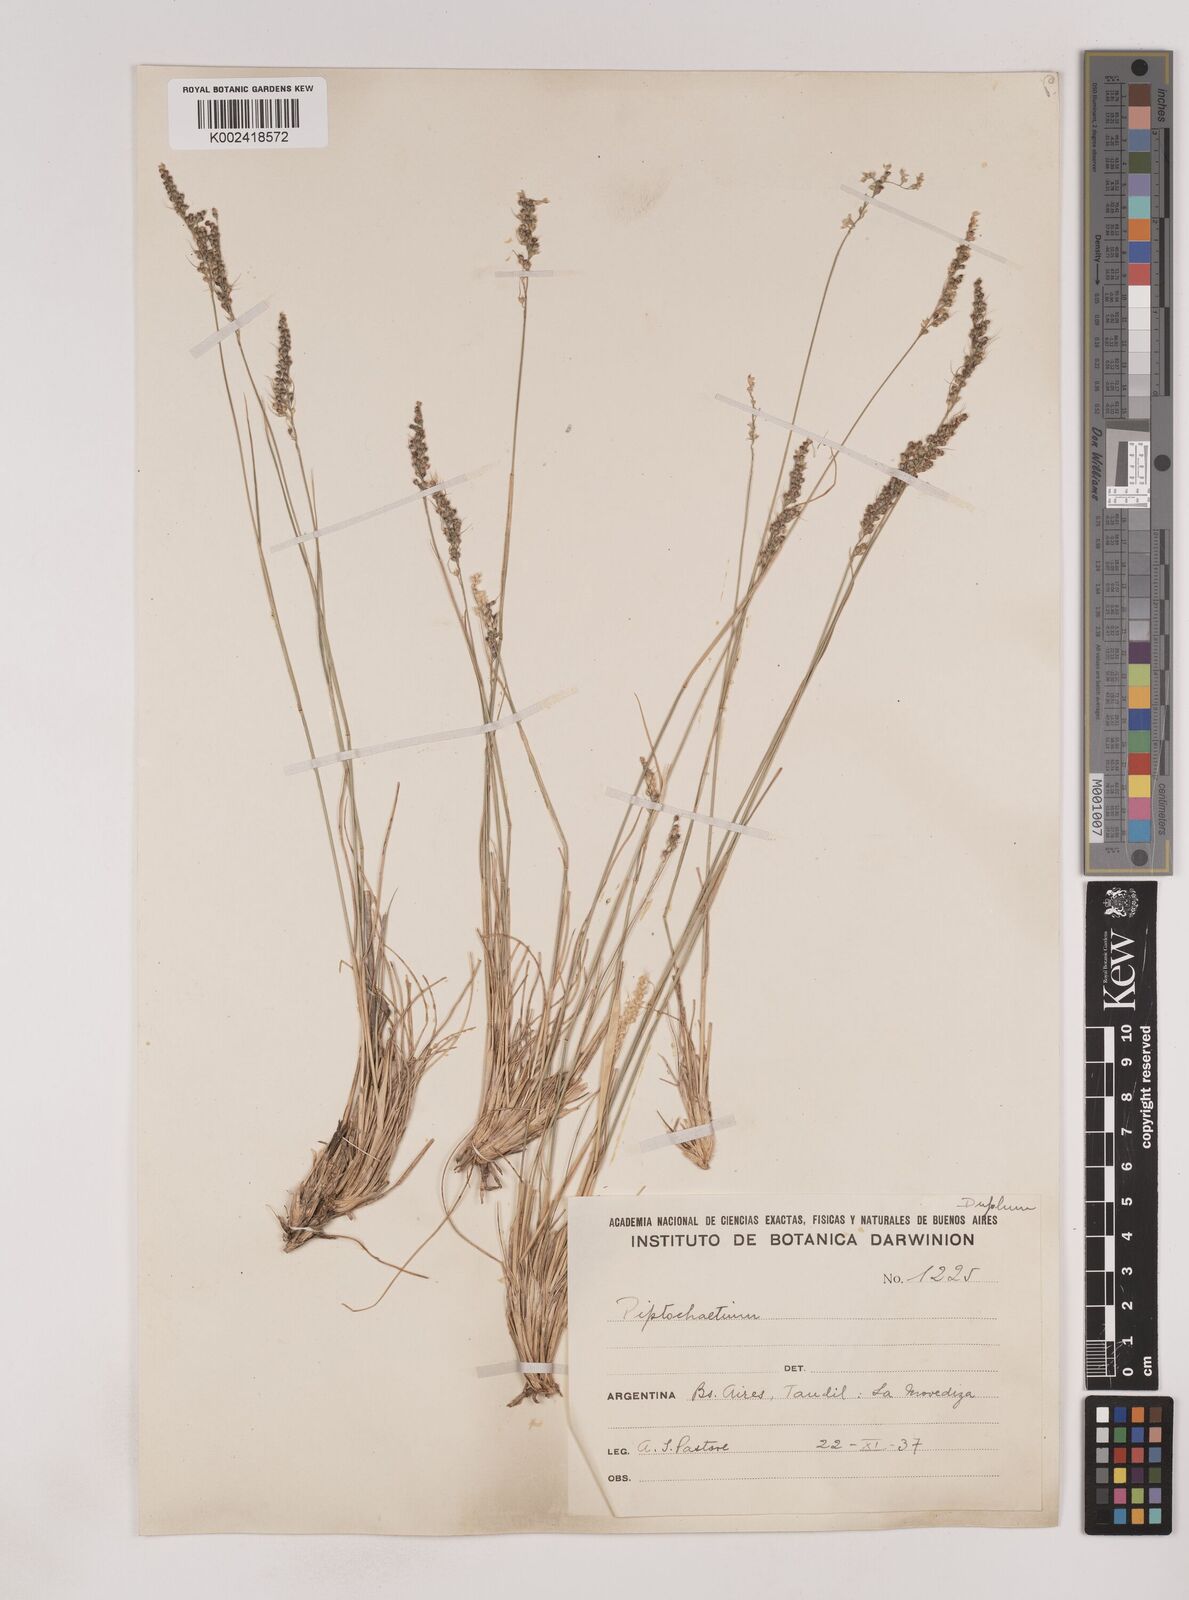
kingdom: Plantae
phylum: Tracheophyta
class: Liliopsida
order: Poales
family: Poaceae
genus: Piptochaetium
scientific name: Piptochaetium montevidense
